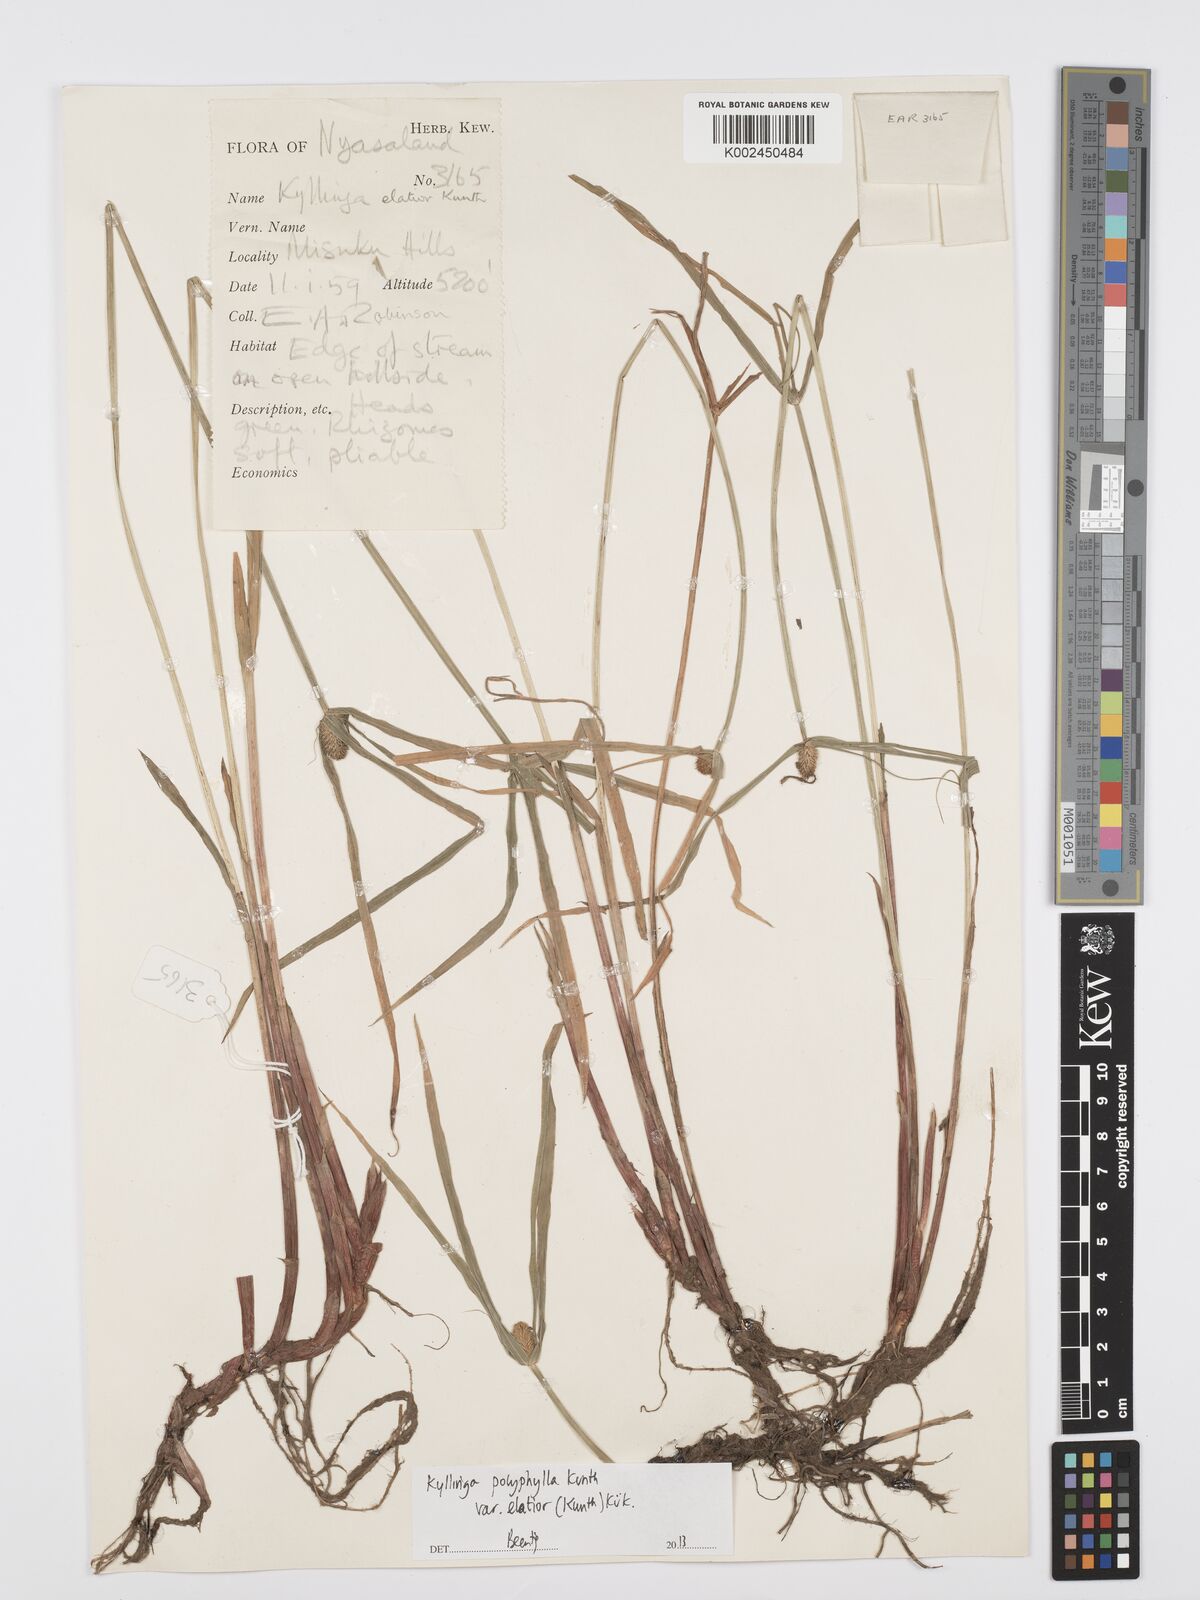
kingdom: Plantae
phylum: Tracheophyta
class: Liliopsida
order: Poales
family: Cyperaceae
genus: Cyperus
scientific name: Cyperus bulbosus
